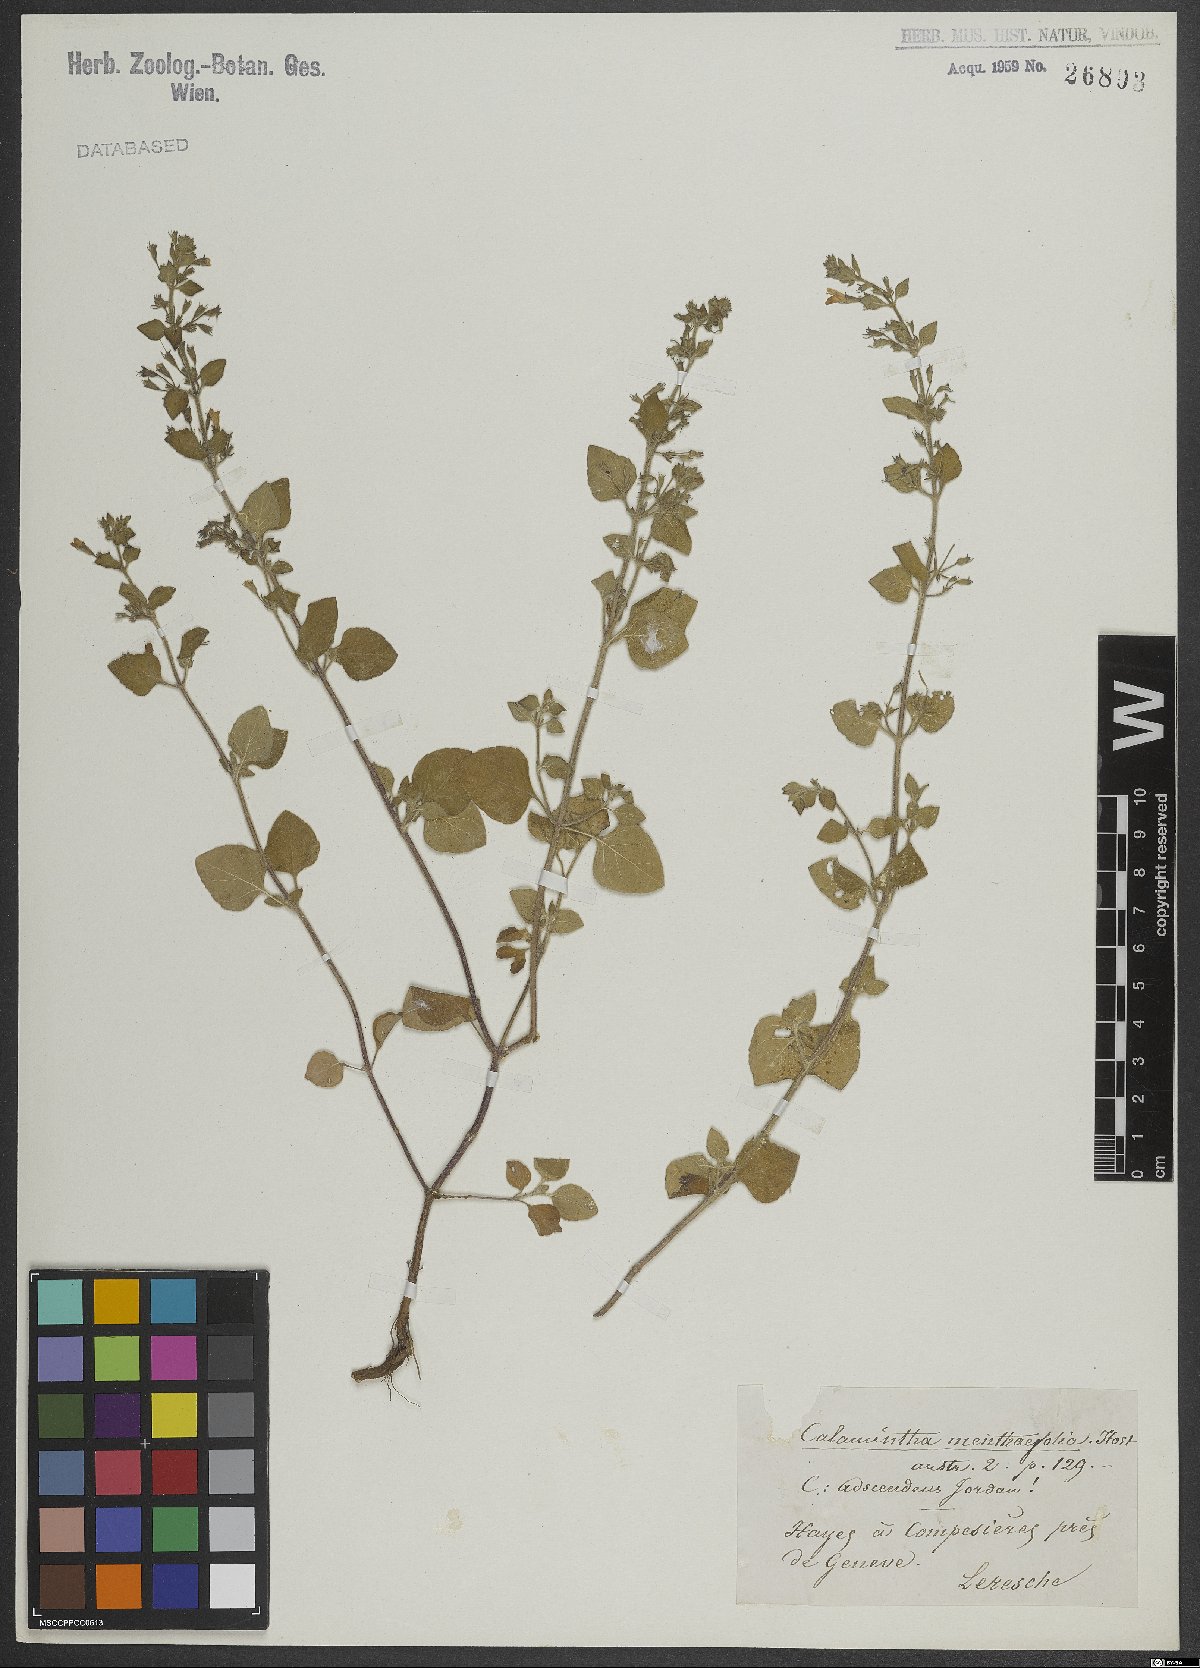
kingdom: Plantae
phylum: Tracheophyta
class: Magnoliopsida
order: Lamiales
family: Lamiaceae
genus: Calamintha
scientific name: Calamintha
